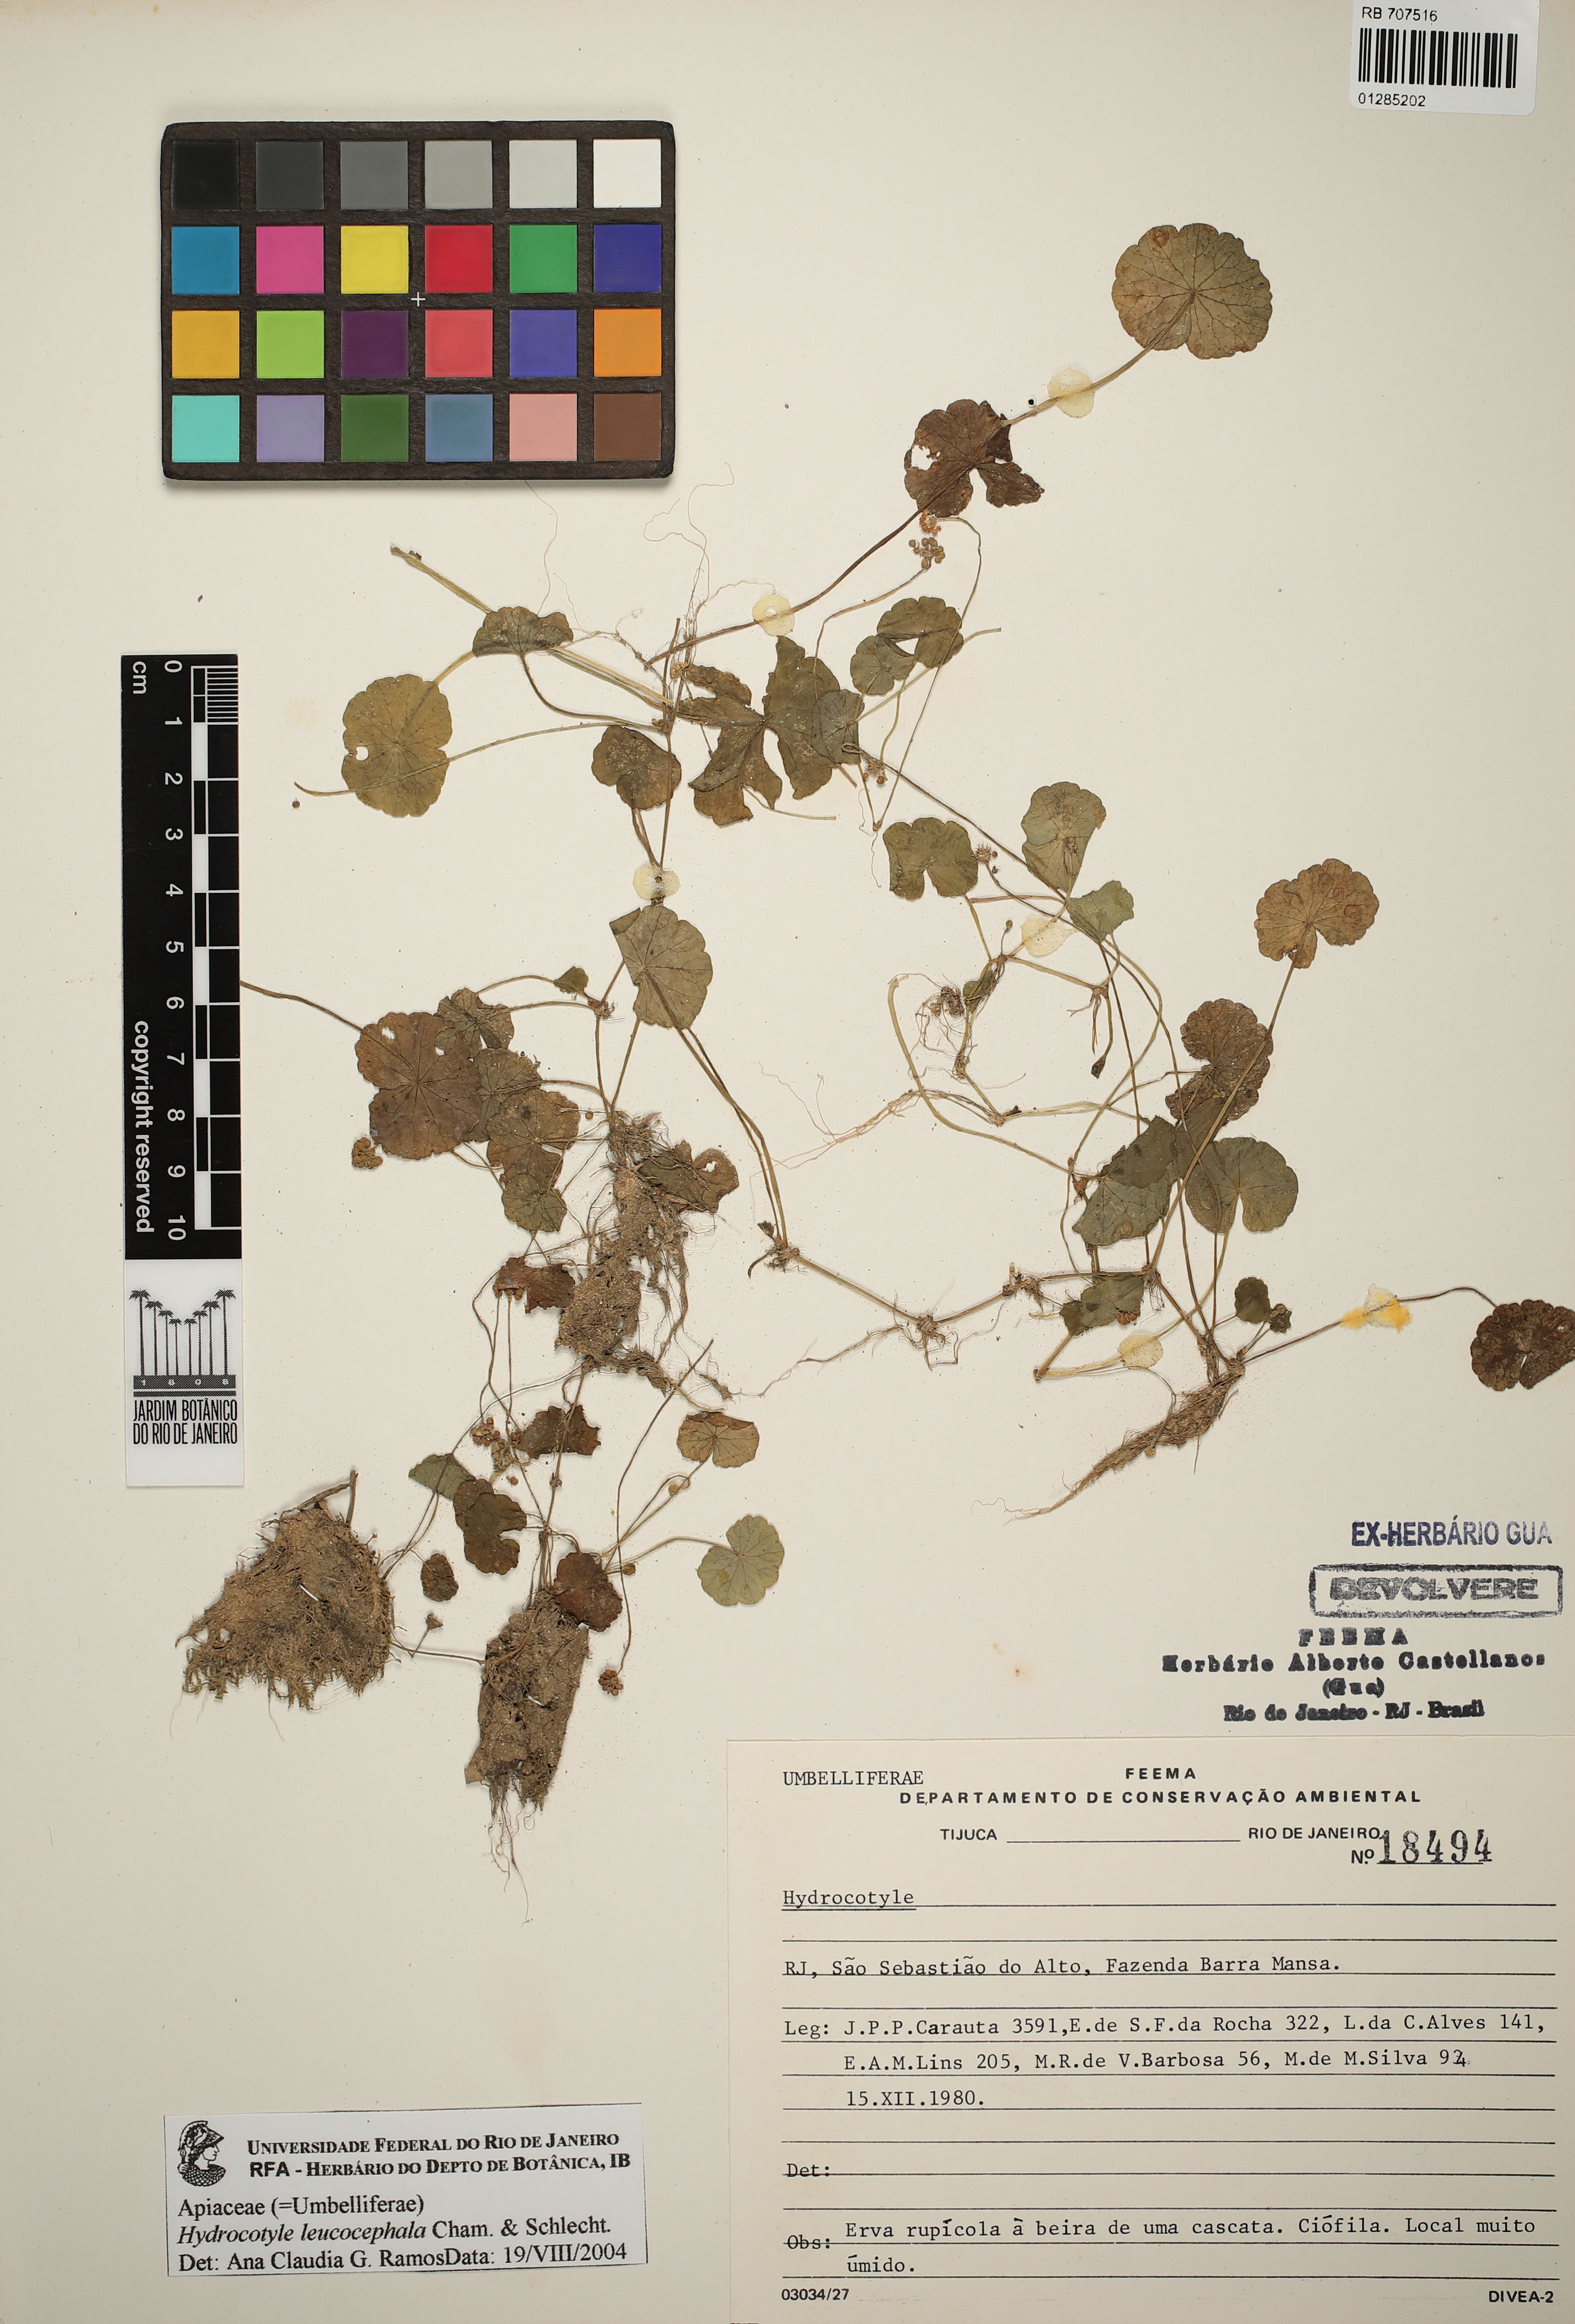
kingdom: Plantae
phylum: Tracheophyta
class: Magnoliopsida
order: Apiales
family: Araliaceae
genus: Hydrocotyle
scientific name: Hydrocotyle leucocephala
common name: Brazilian pennywort
